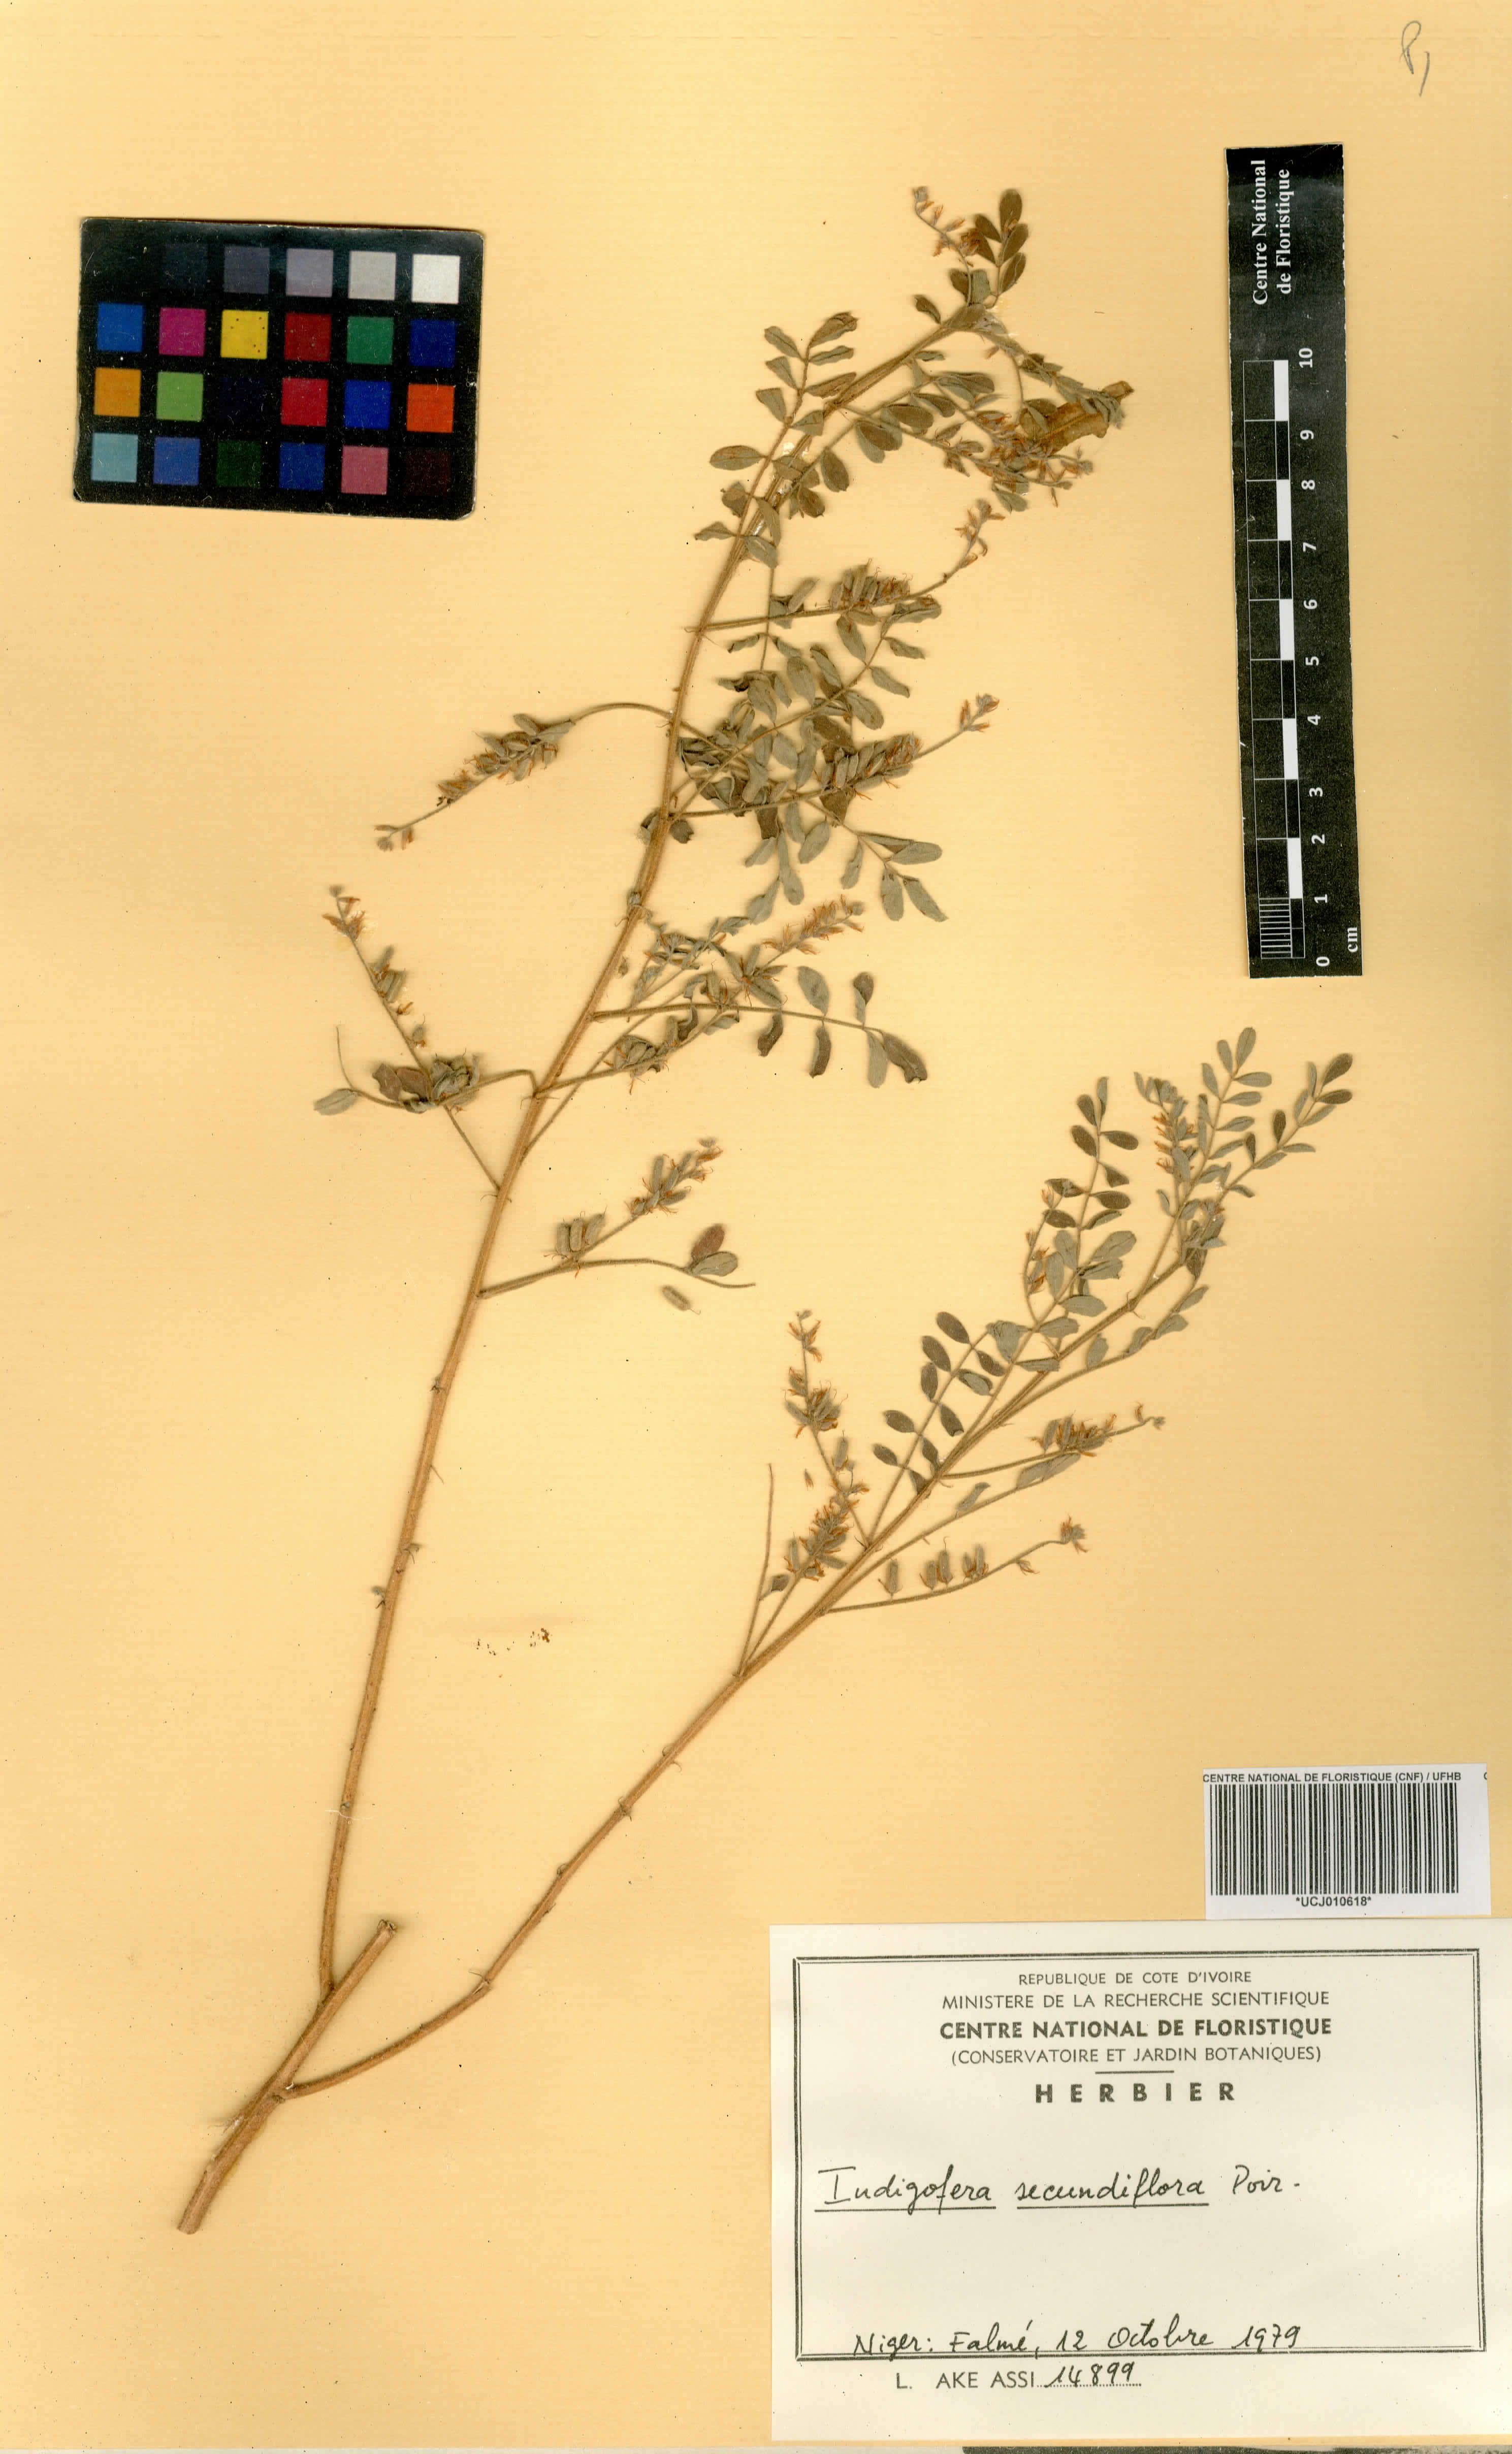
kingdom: Plantae
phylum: Tracheophyta
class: Magnoliopsida
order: Fabales
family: Fabaceae
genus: Indigofera
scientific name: Indigofera suffruticosa
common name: Anil de pasto
